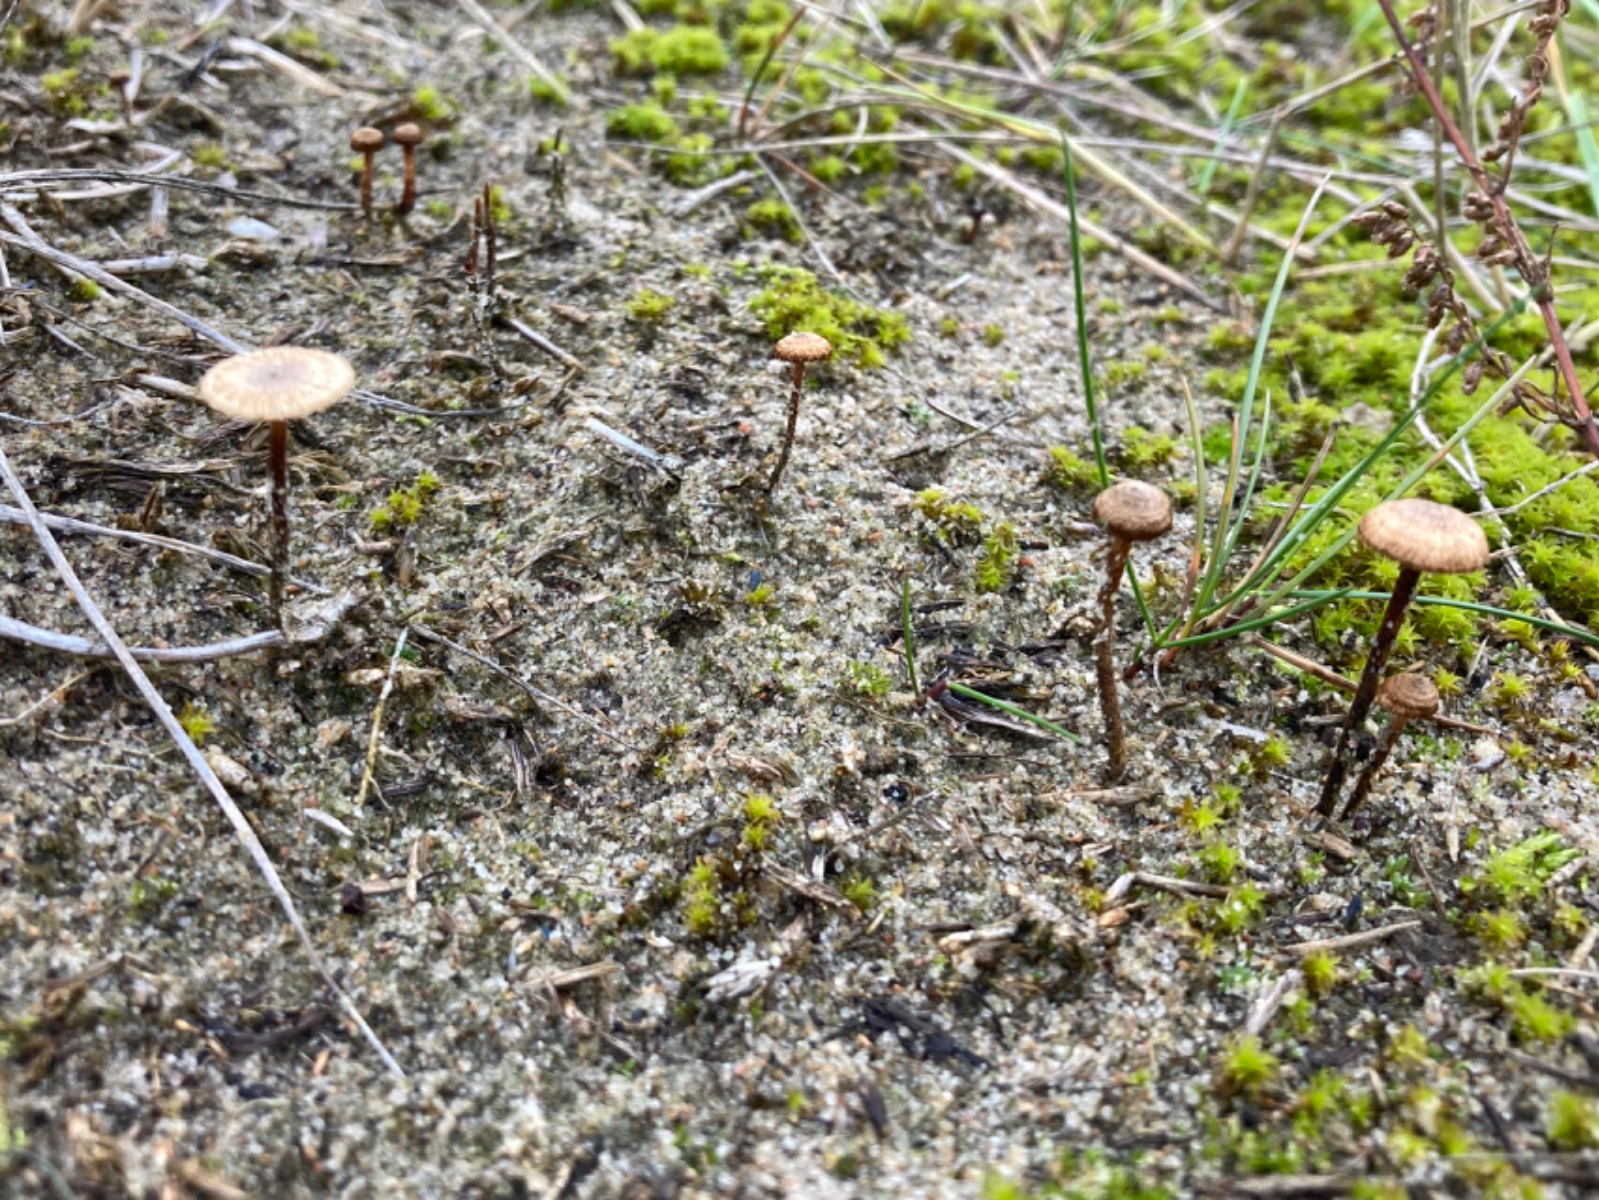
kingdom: Fungi
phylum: Basidiomycota
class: Agaricomycetes
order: Agaricales
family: Marasmiaceae
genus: Crinipellis
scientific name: Crinipellis scabella
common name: børstefod
